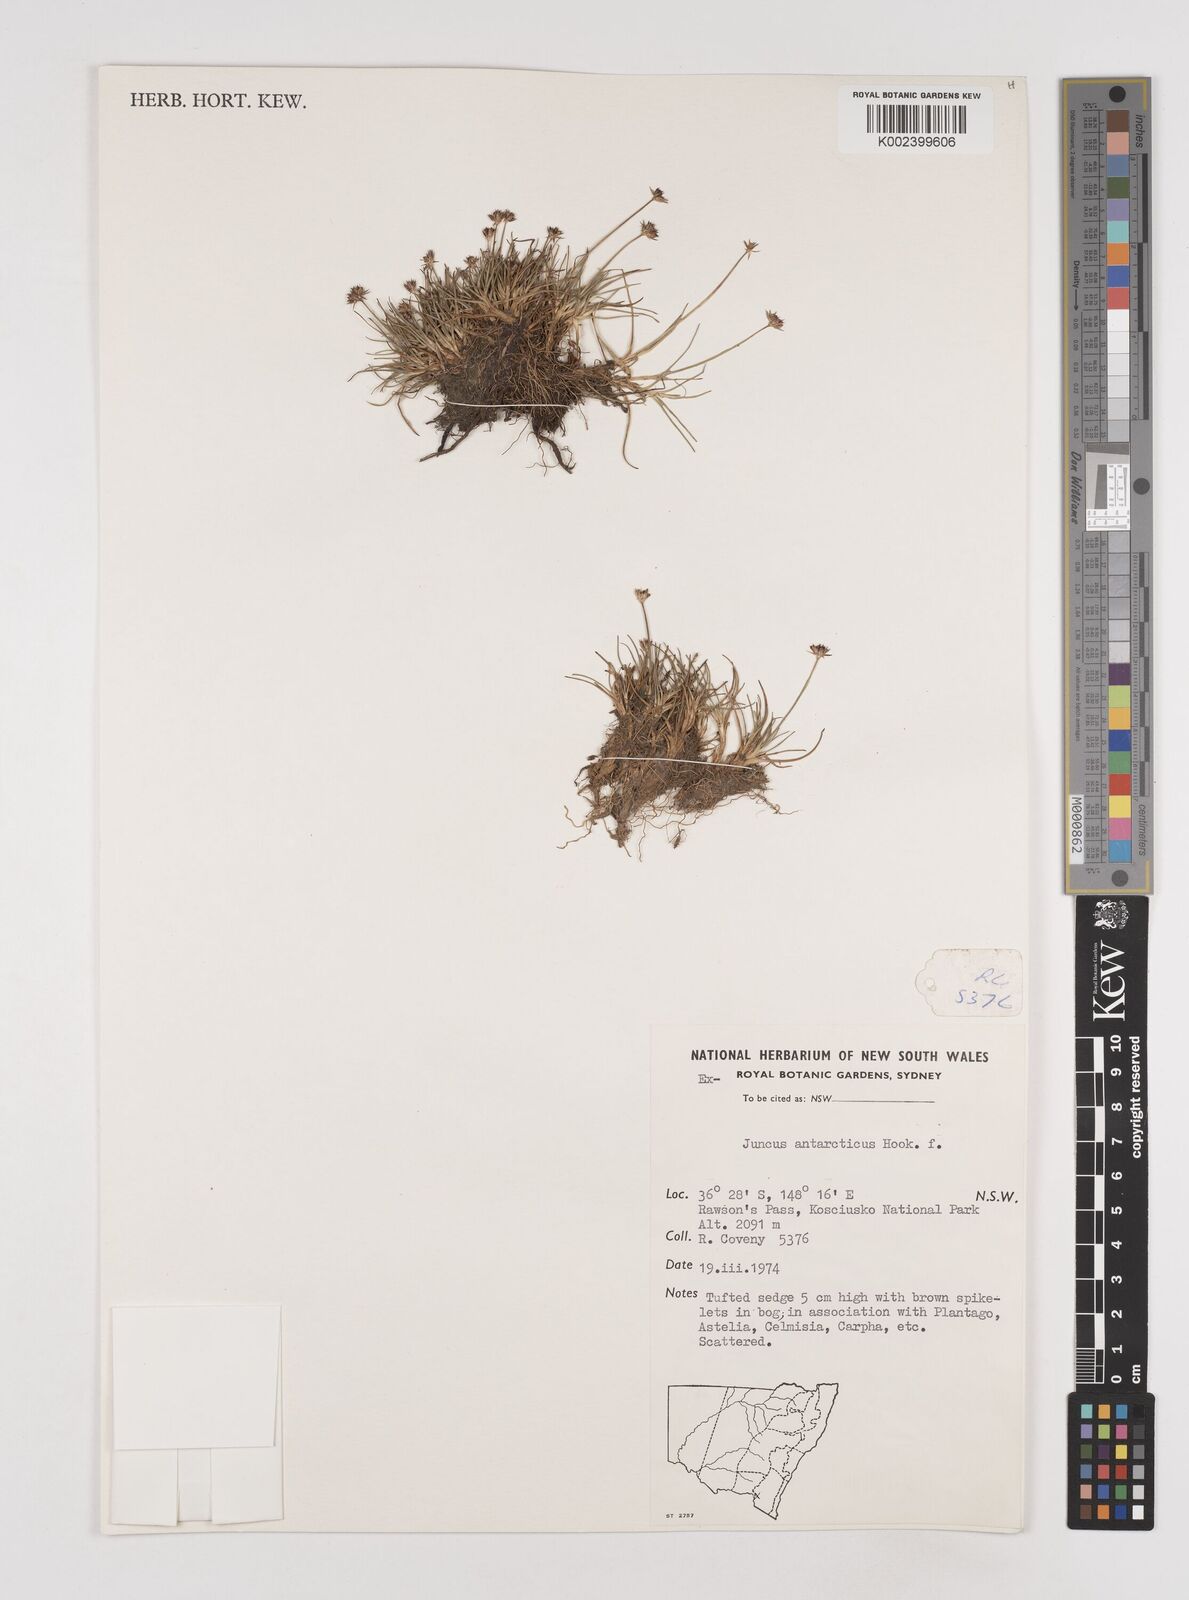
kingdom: Plantae
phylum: Tracheophyta
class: Liliopsida
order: Poales
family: Juncaceae
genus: Juncus
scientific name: Juncus antarcticus
